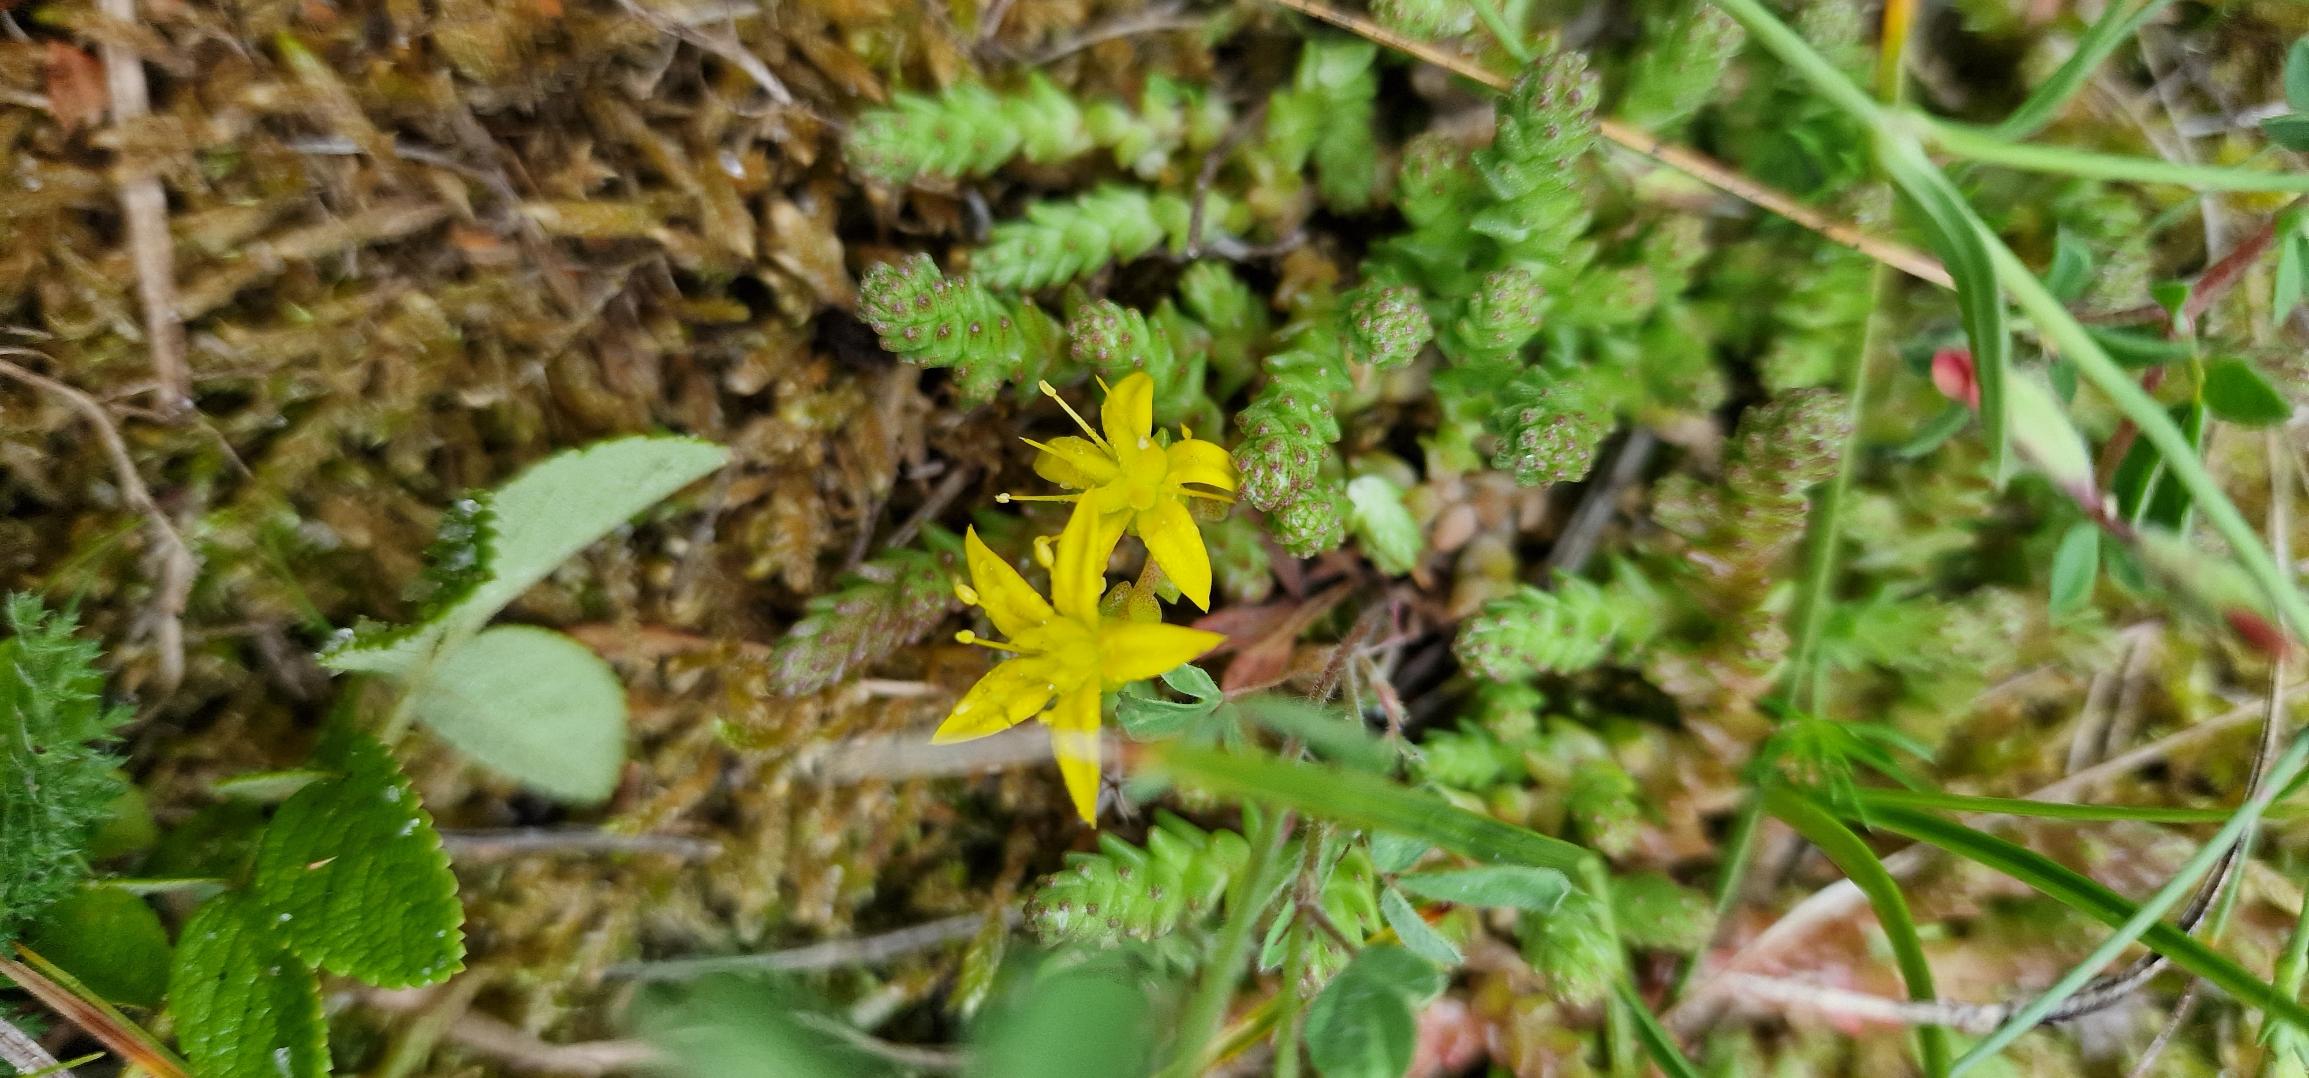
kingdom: Plantae
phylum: Tracheophyta
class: Magnoliopsida
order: Saxifragales
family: Crassulaceae
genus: Sedum
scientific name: Sedum acre
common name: Bidende stenurt
